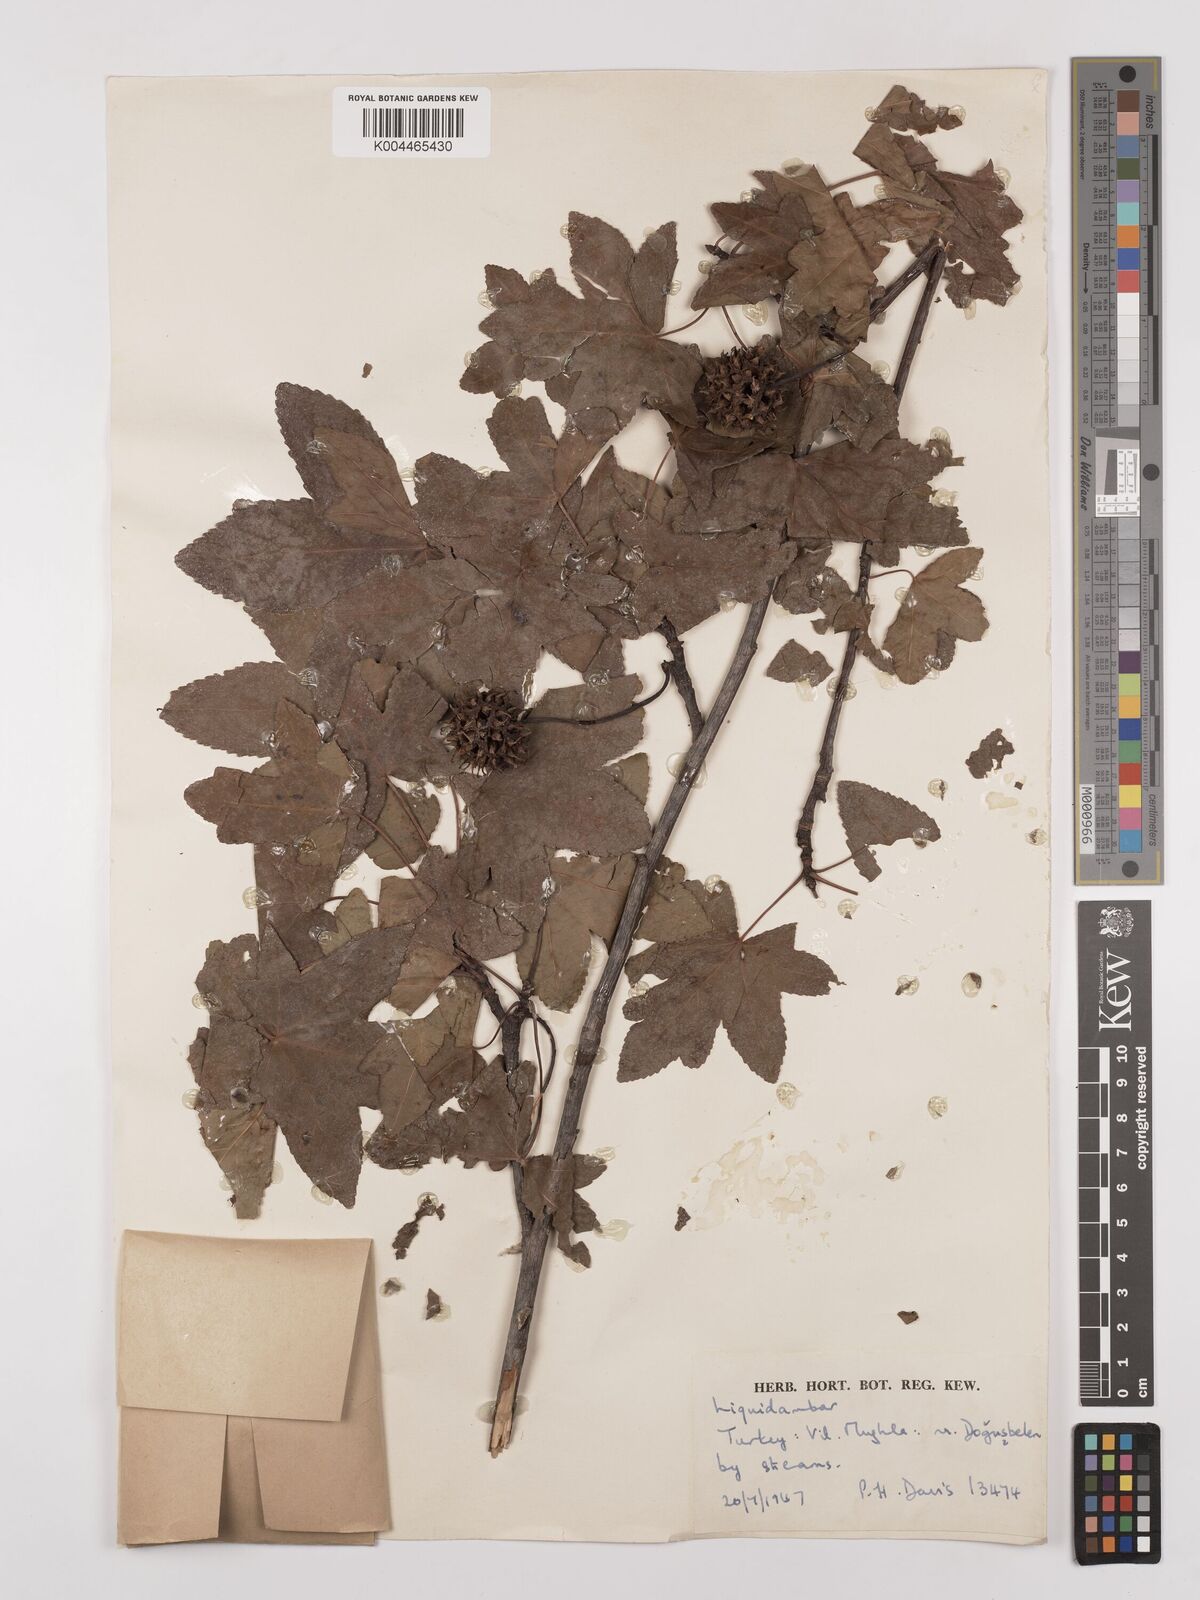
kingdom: Plantae
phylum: Tracheophyta
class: Magnoliopsida
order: Saxifragales
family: Altingiaceae
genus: Liquidambar
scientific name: Liquidambar orientalis
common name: Oriental sweetgum
